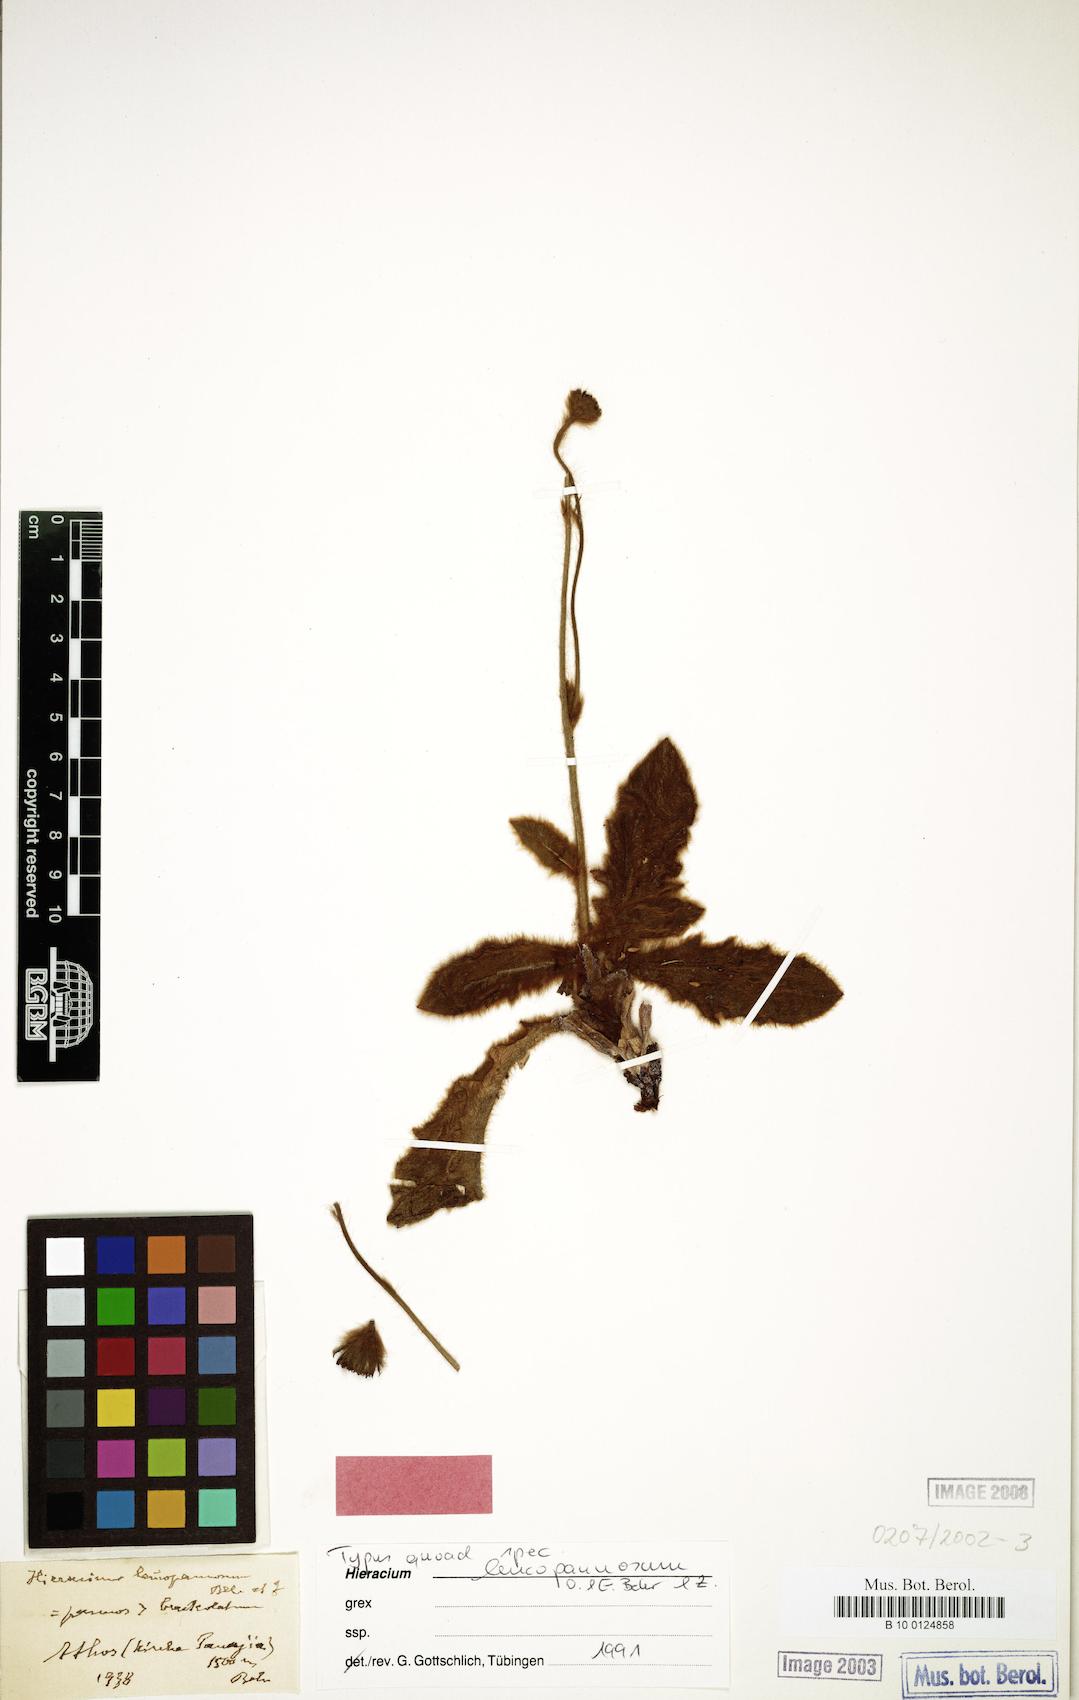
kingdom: Plantae
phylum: Tracheophyta
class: Magnoliopsida
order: Asterales
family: Asteraceae
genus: Hieracium
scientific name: Hieracium triadanum
